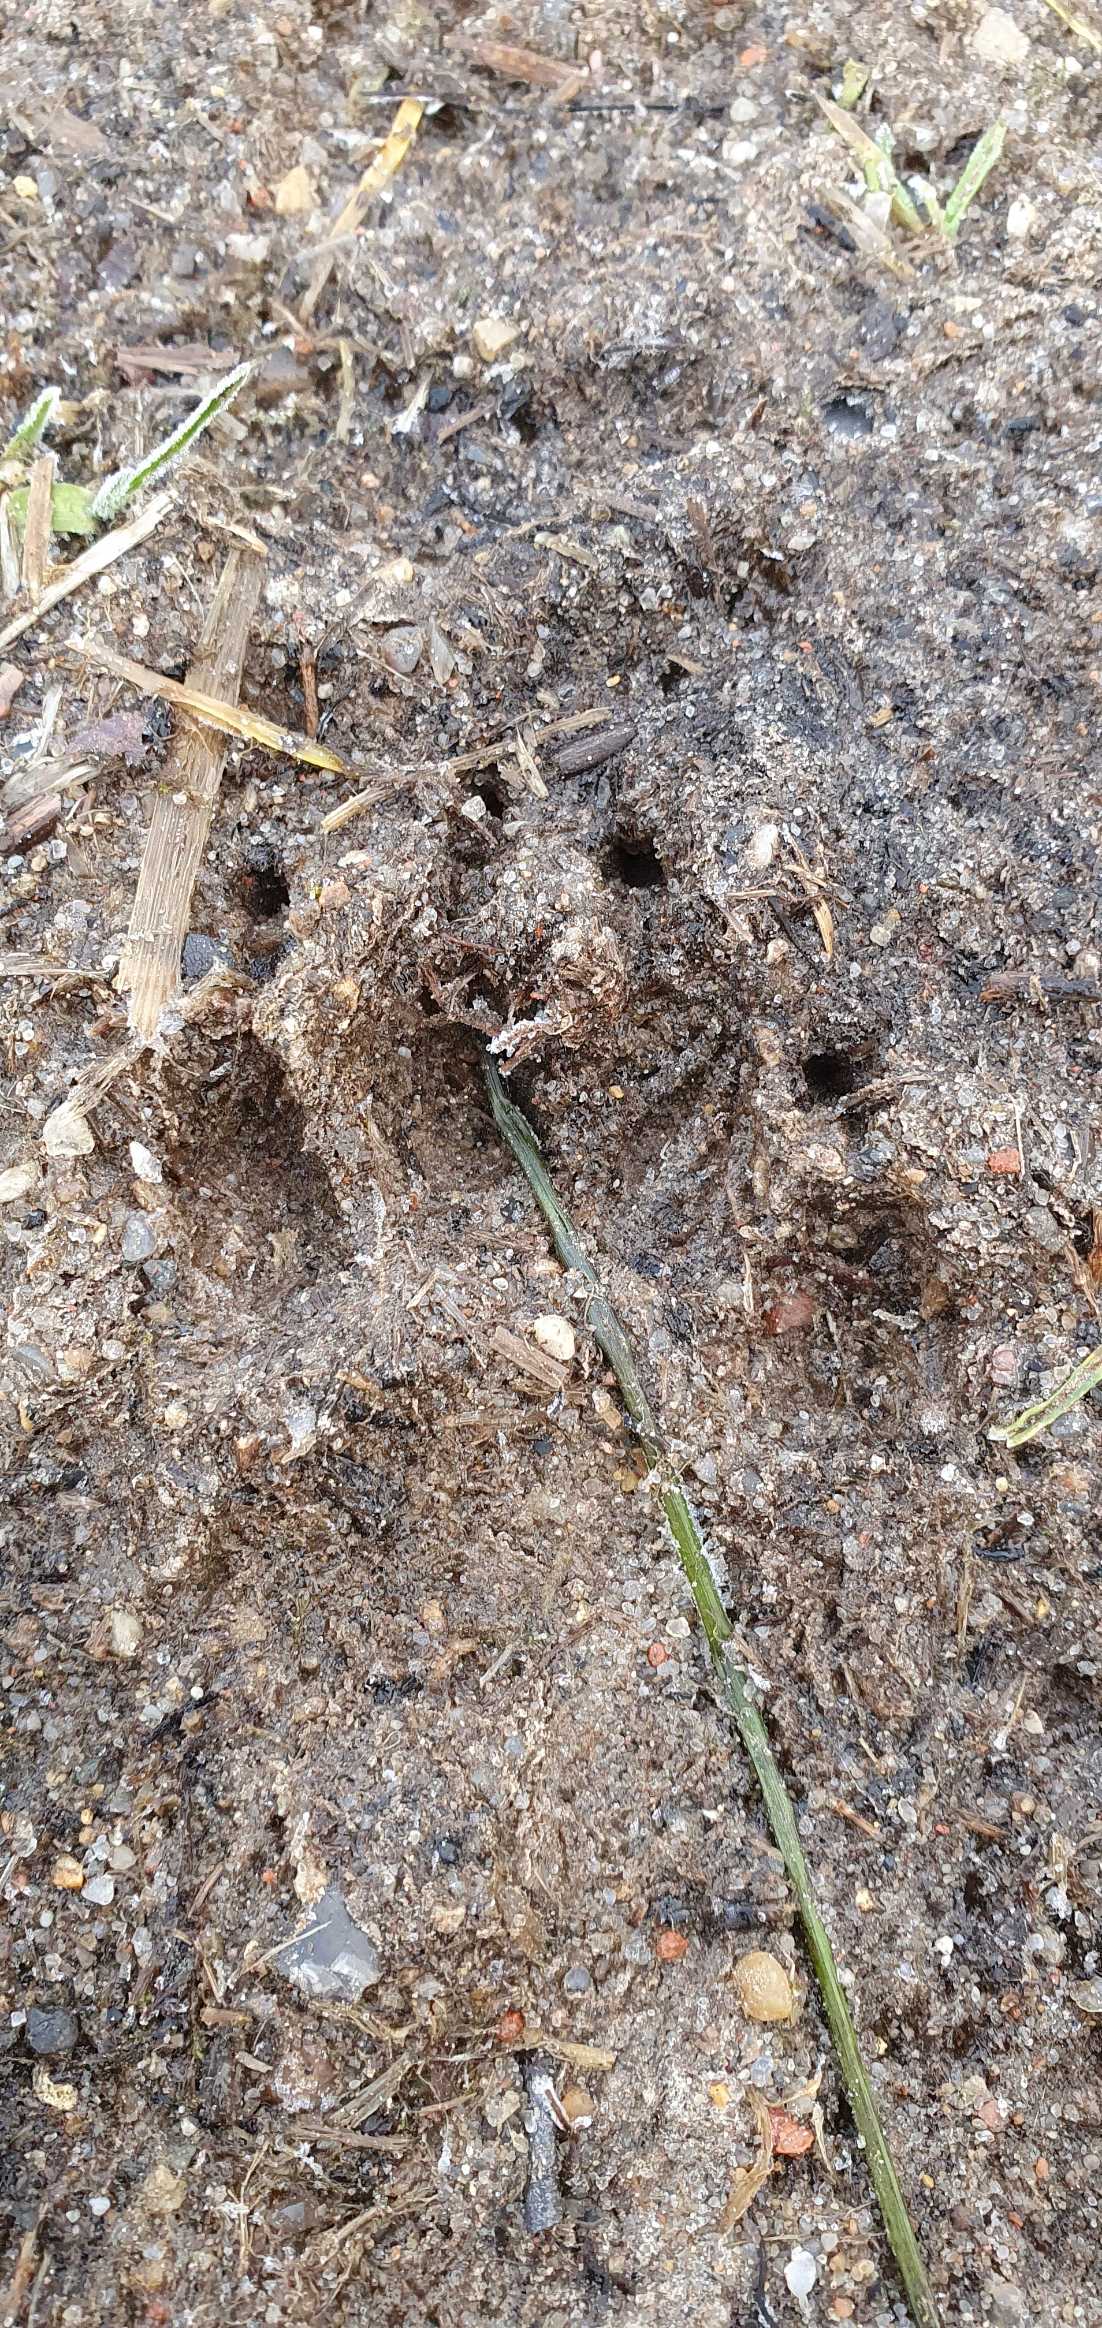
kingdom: Animalia
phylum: Chordata
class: Mammalia
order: Carnivora
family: Mustelidae
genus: Meles
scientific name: Meles meles
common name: Grævling
